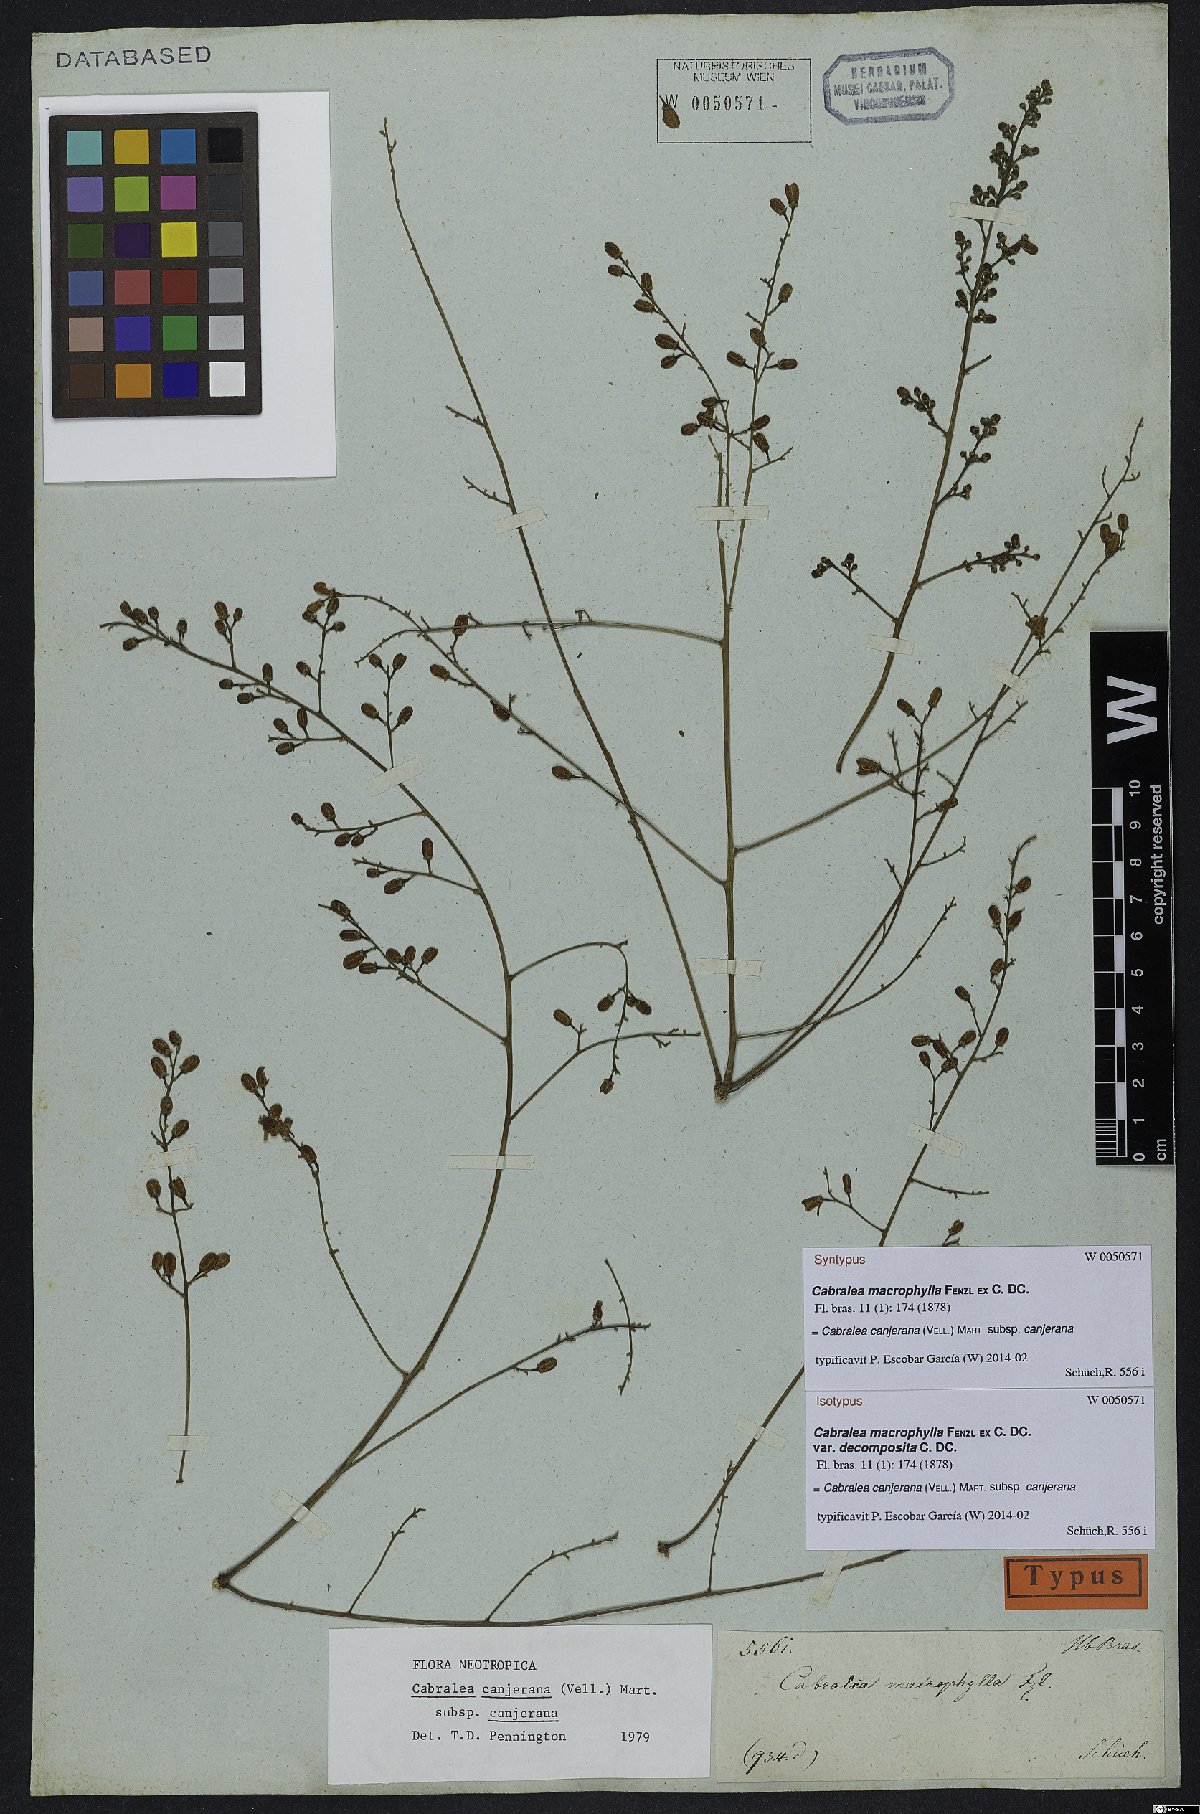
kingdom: Plantae
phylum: Tracheophyta
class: Magnoliopsida
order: Sapindales
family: Meliaceae
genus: Cabralea
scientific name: Cabralea canjerana
